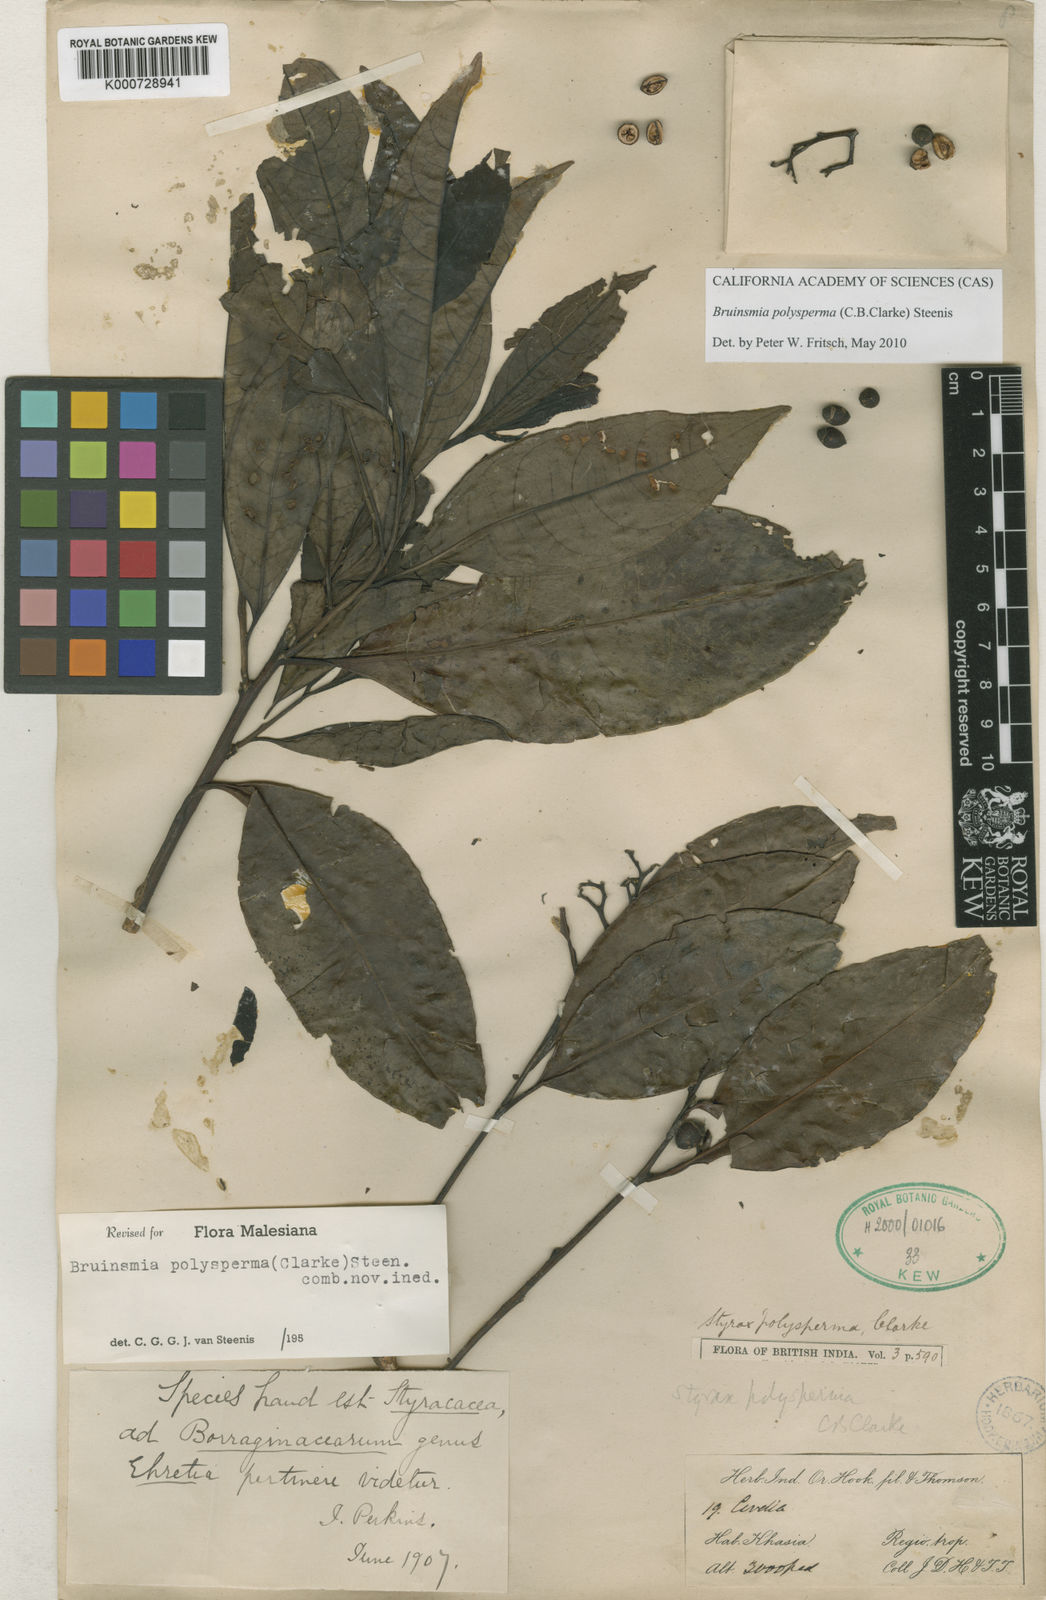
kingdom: Plantae
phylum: Tracheophyta
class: Magnoliopsida
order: Ericales
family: Styracaceae
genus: Bruinsmia
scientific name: Bruinsmia polysperma
